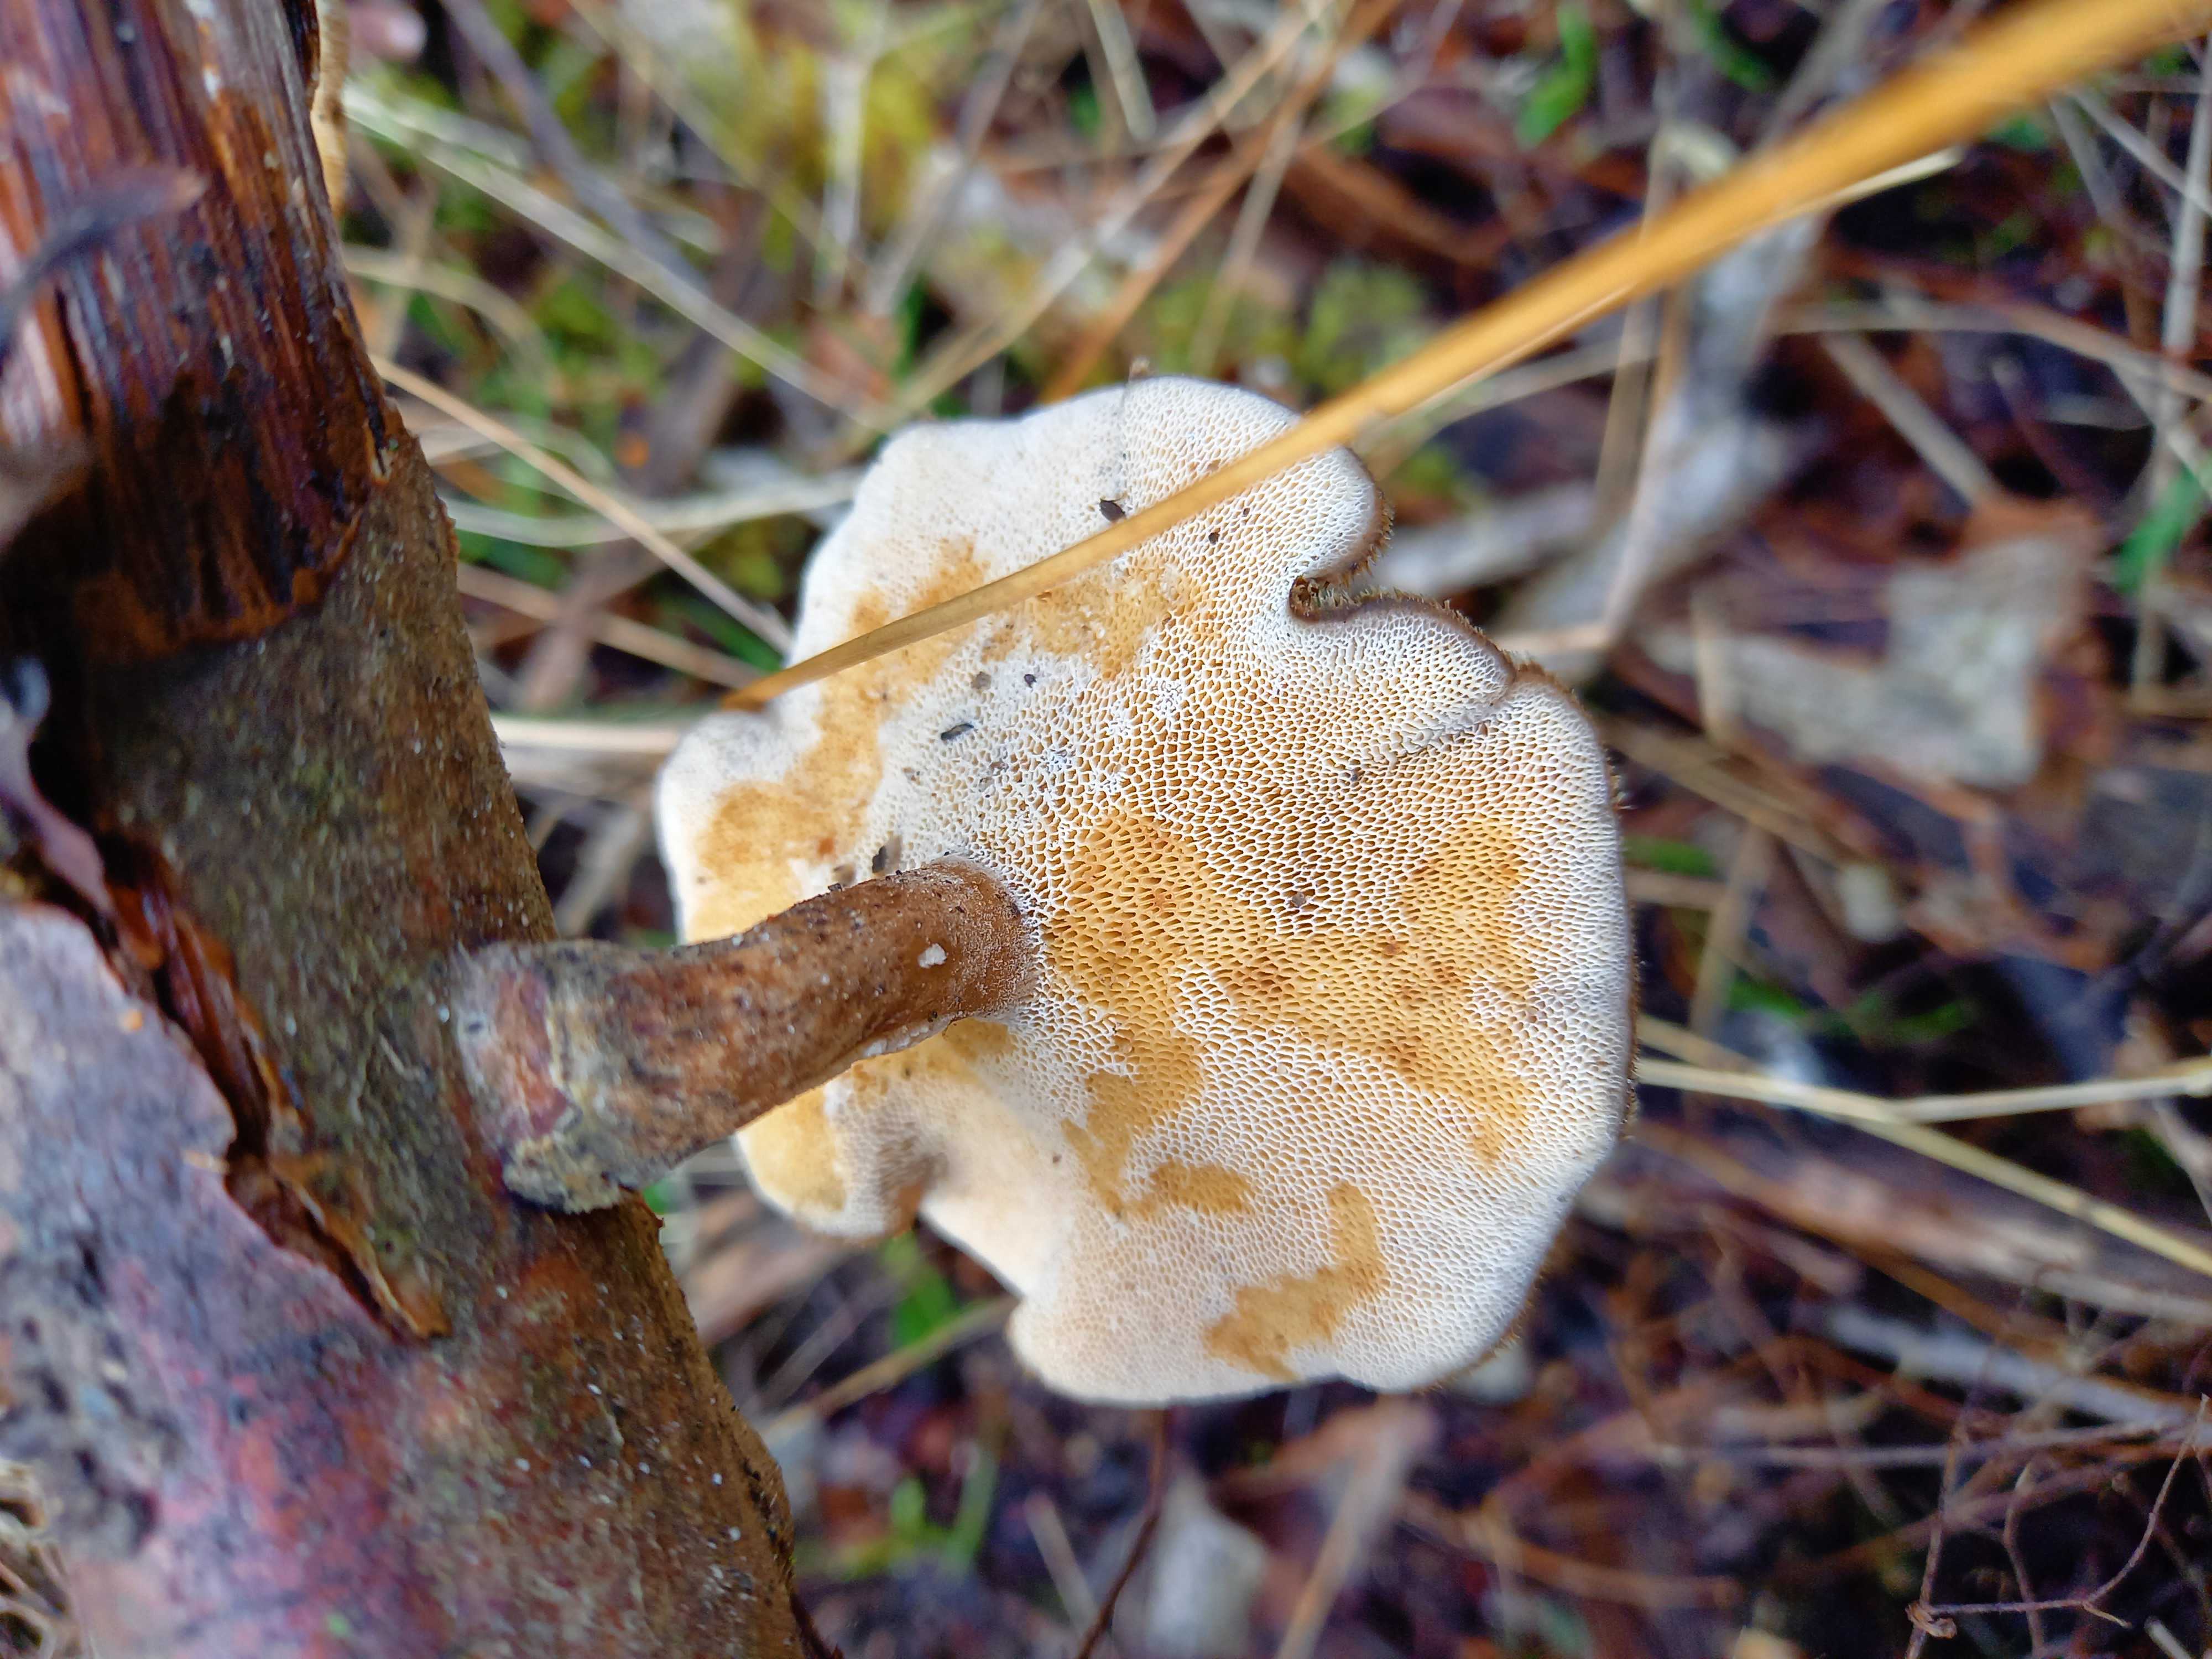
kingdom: Fungi
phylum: Basidiomycota
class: Agaricomycetes
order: Polyporales
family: Polyporaceae
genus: Lentinus
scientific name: Lentinus brumalis
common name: vinter-stilkporesvamp
